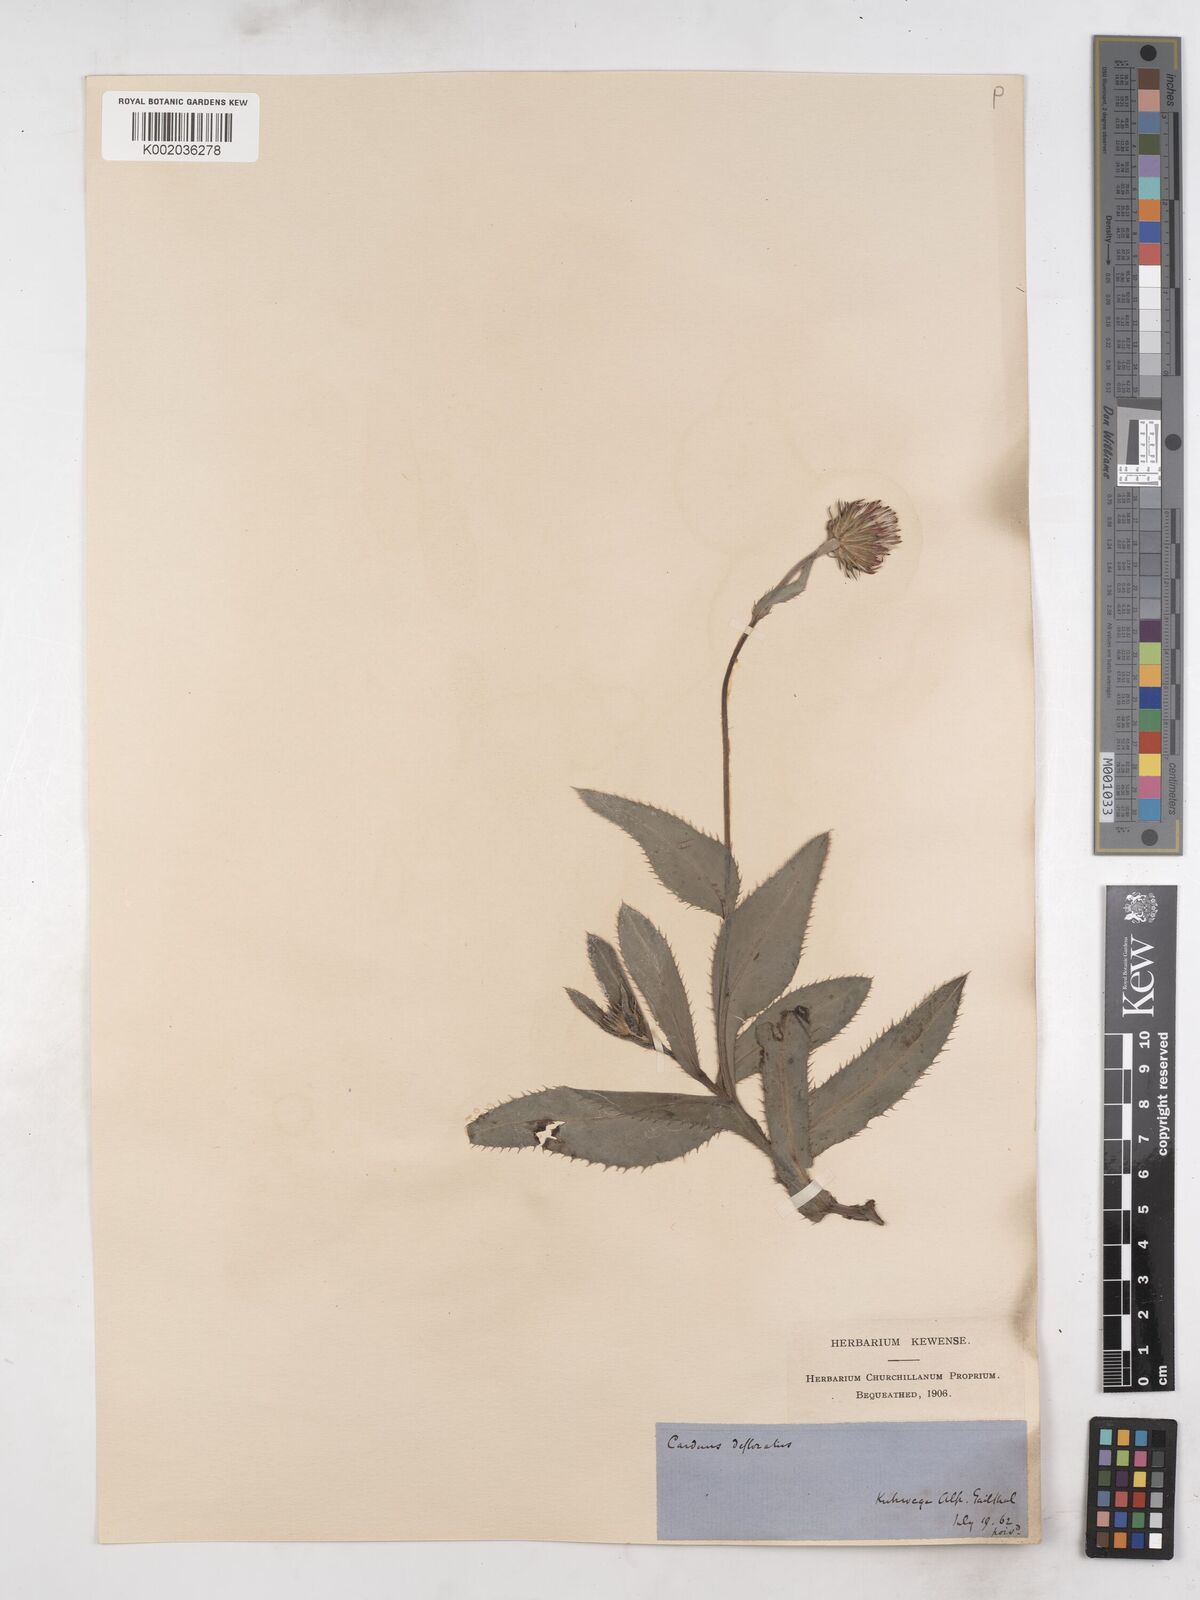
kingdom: Plantae
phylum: Tracheophyta
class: Magnoliopsida
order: Asterales
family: Asteraceae
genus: Carduus
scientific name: Carduus defloratus
